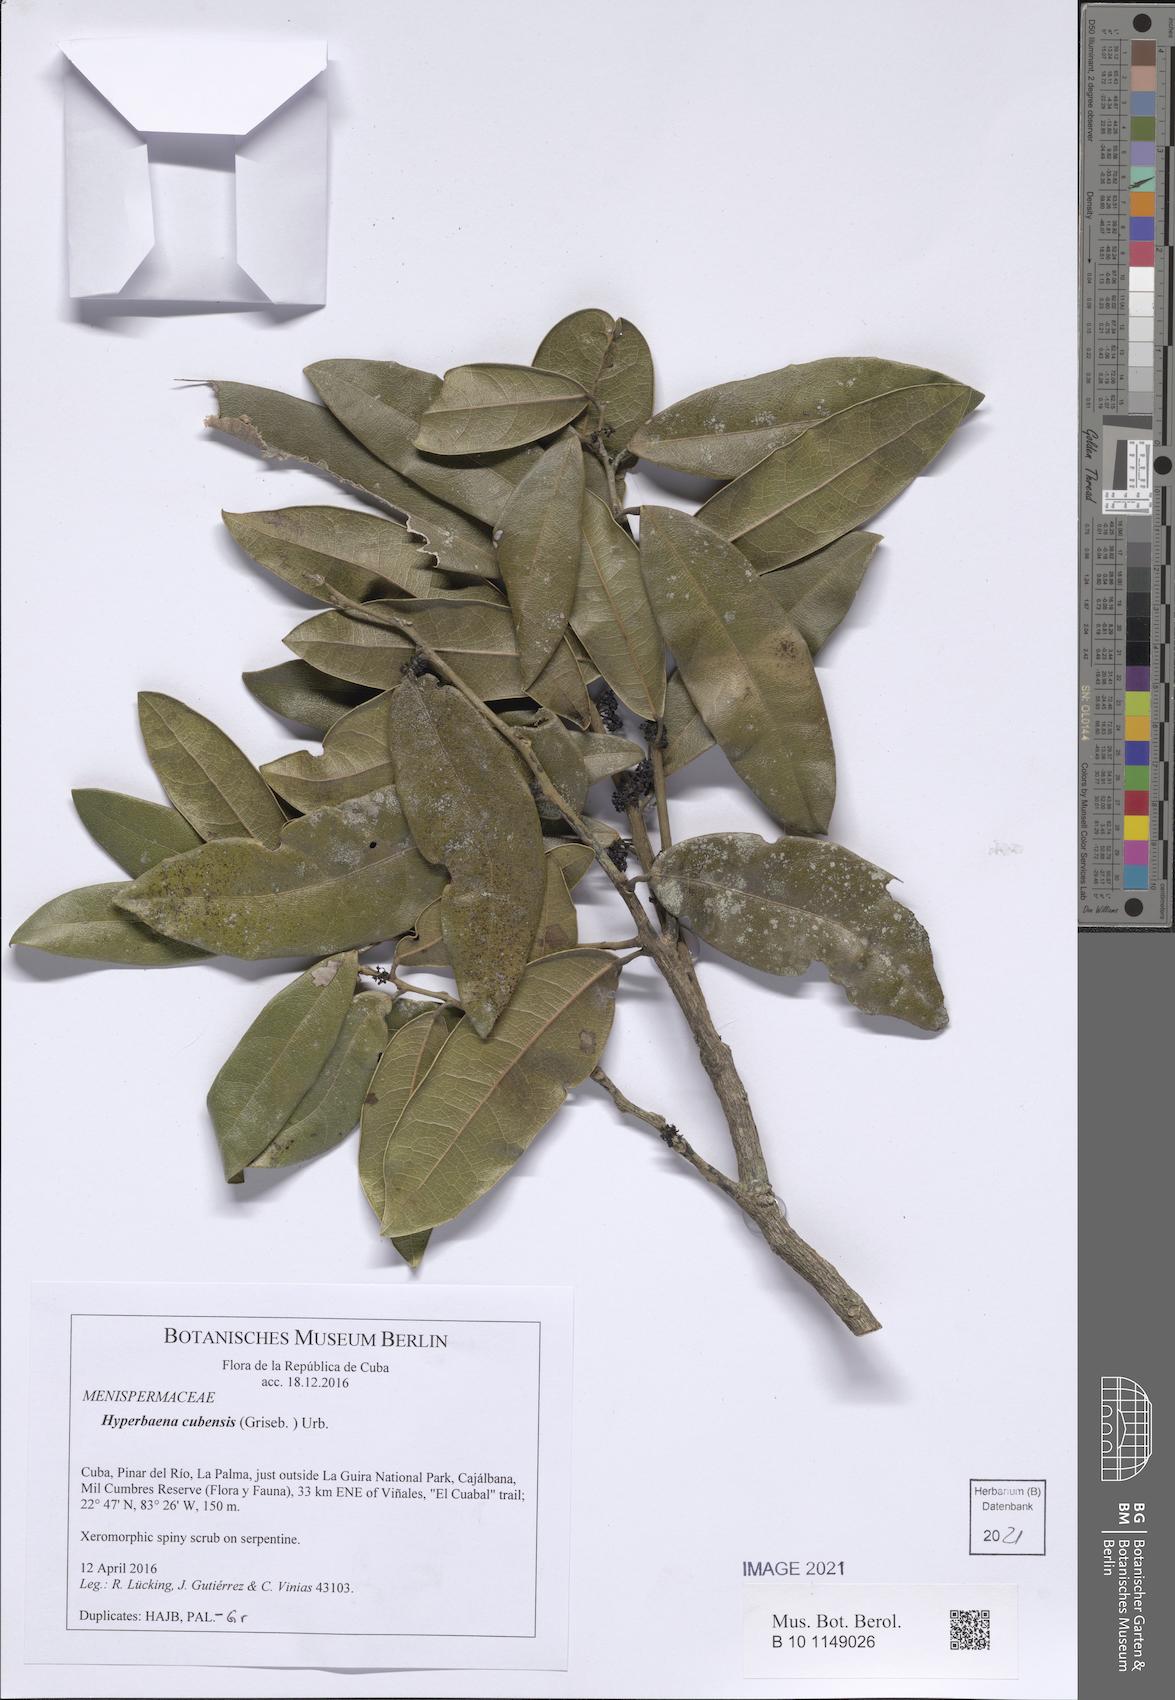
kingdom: Plantae
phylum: Tracheophyta
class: Magnoliopsida
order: Ranunculales
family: Menispermaceae
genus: Hyperbaena
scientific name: Hyperbaena columbica
